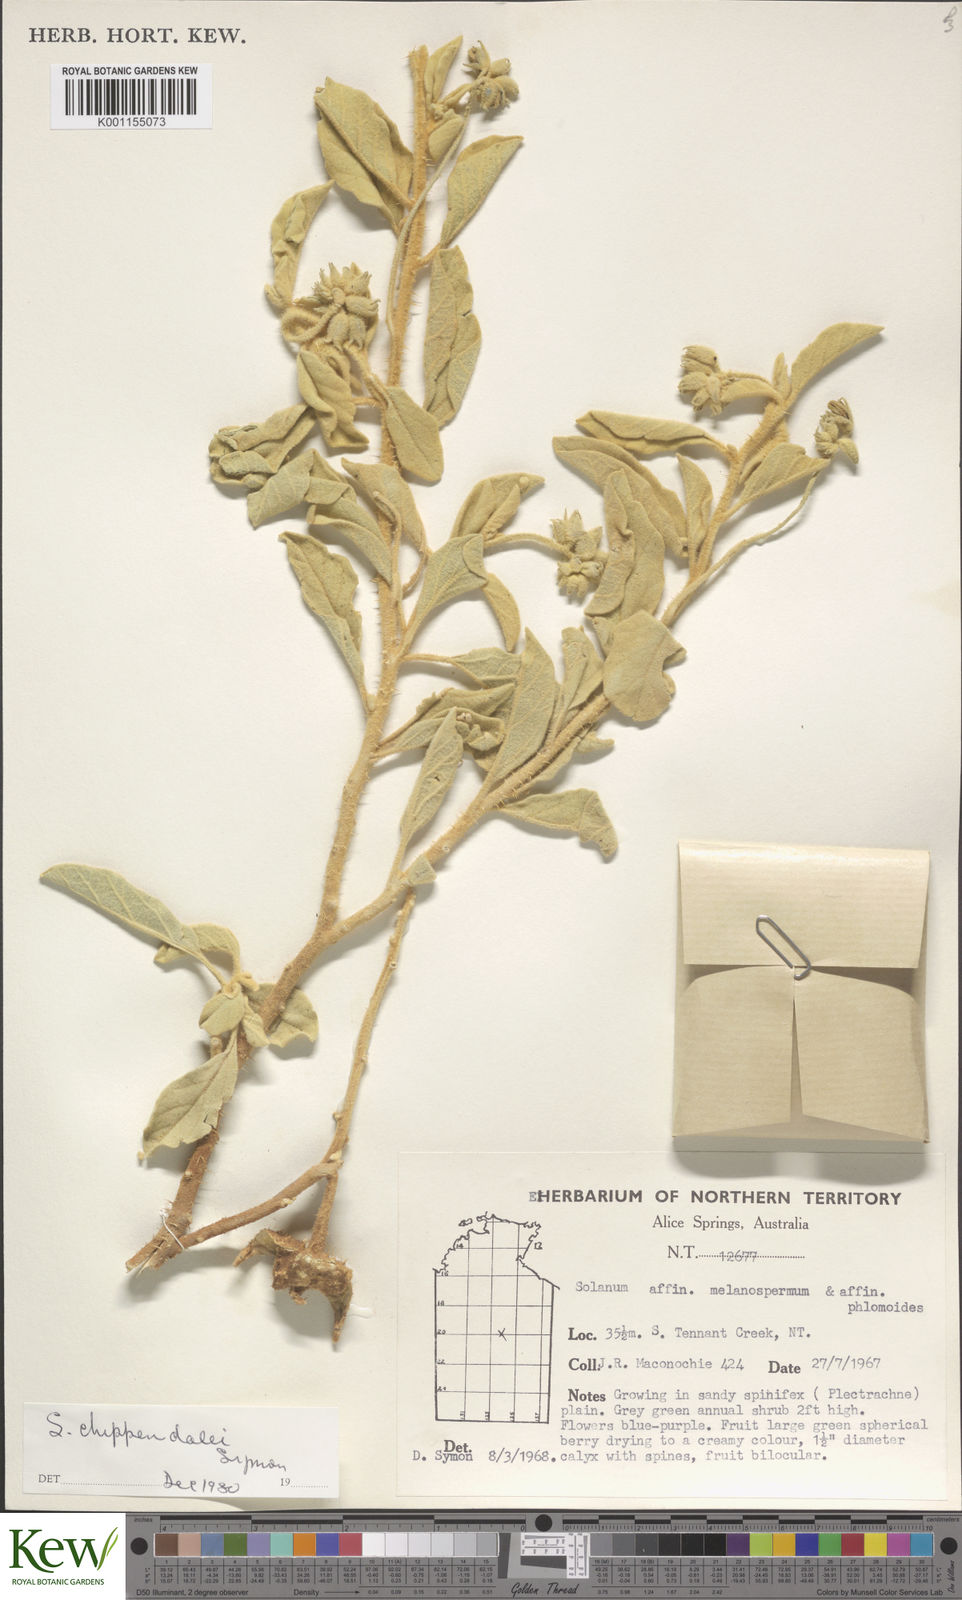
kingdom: Plantae
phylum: Tracheophyta
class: Magnoliopsida
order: Solanales
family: Solanaceae
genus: Solanum
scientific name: Solanum chippendalei
